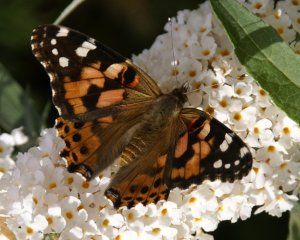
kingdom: Animalia
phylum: Arthropoda
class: Insecta
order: Lepidoptera
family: Nymphalidae
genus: Vanessa
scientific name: Vanessa cardui
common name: Painted Lady
